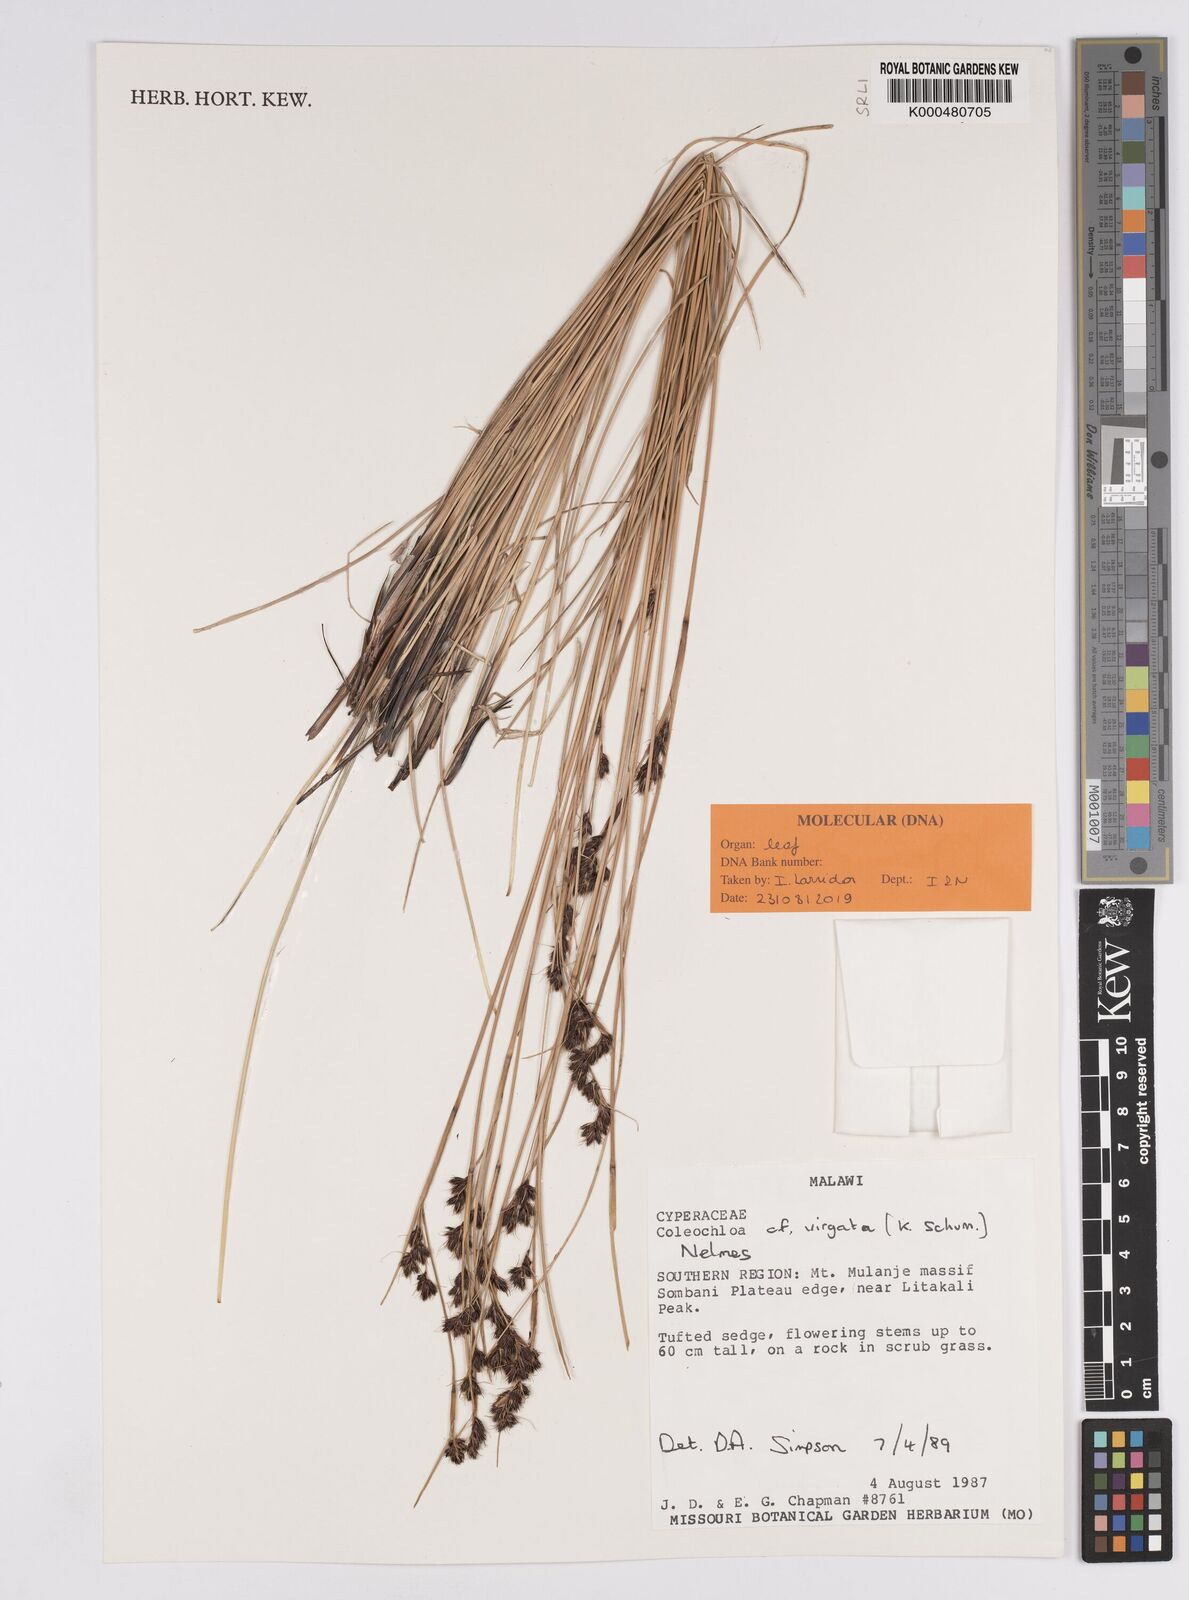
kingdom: Plantae
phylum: Tracheophyta
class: Liliopsida
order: Poales
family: Cyperaceae
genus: Coleochloa
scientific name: Coleochloa virgata
